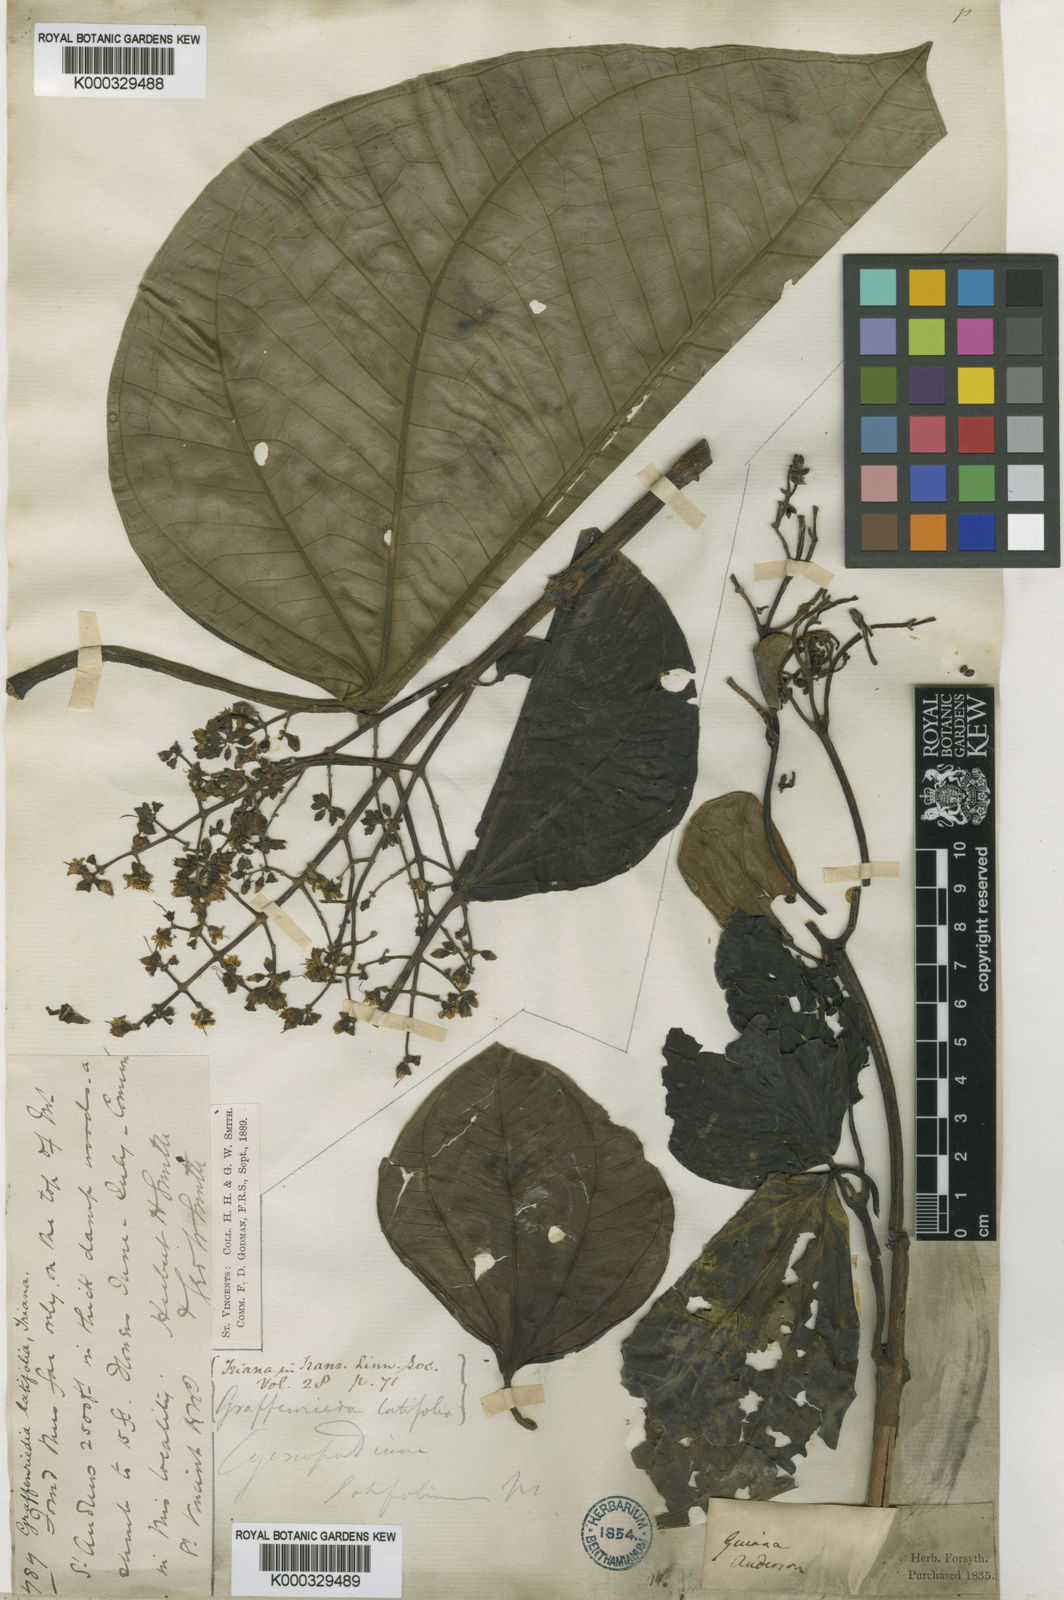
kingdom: Plantae
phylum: Tracheophyta
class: Magnoliopsida
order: Myrtales
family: Melastomataceae
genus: Graffenrieda
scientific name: Graffenrieda latifolia
